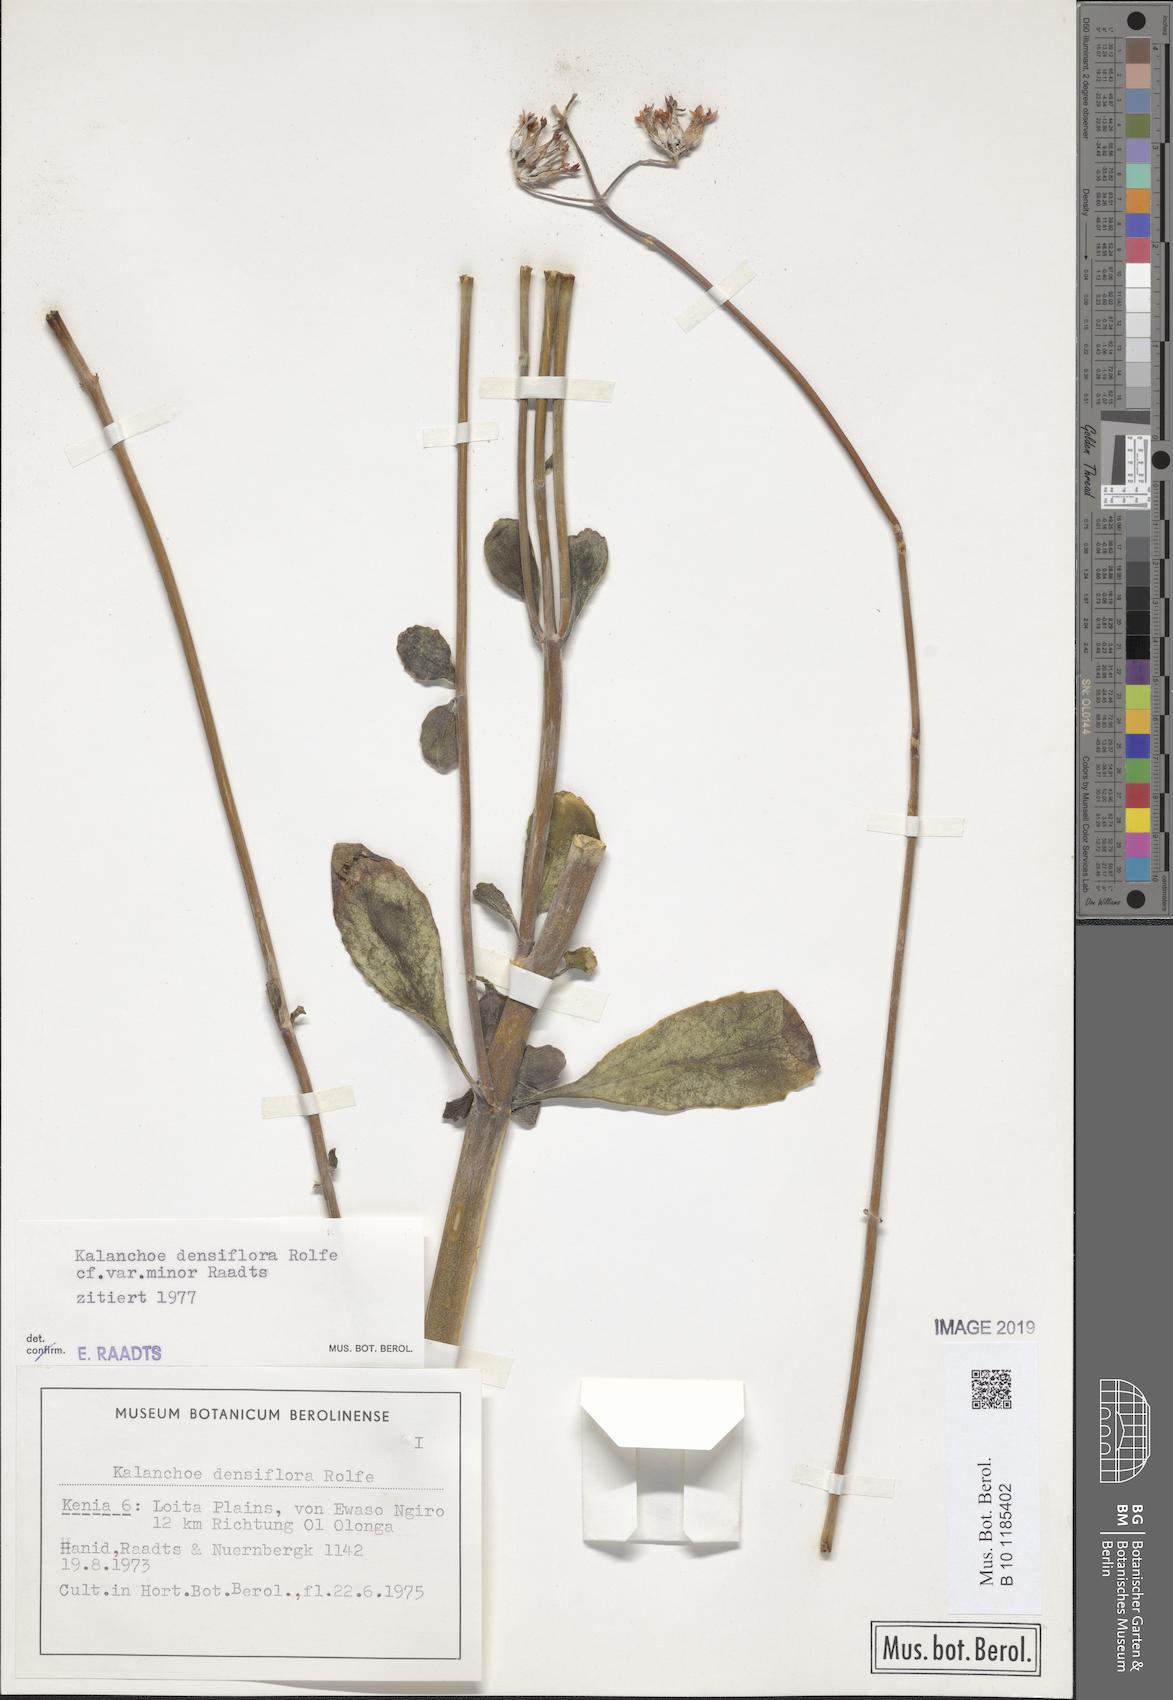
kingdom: Plantae
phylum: Tracheophyta
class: Magnoliopsida
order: Saxifragales
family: Crassulaceae
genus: Kalanchoe
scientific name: Kalanchoe densiflora
